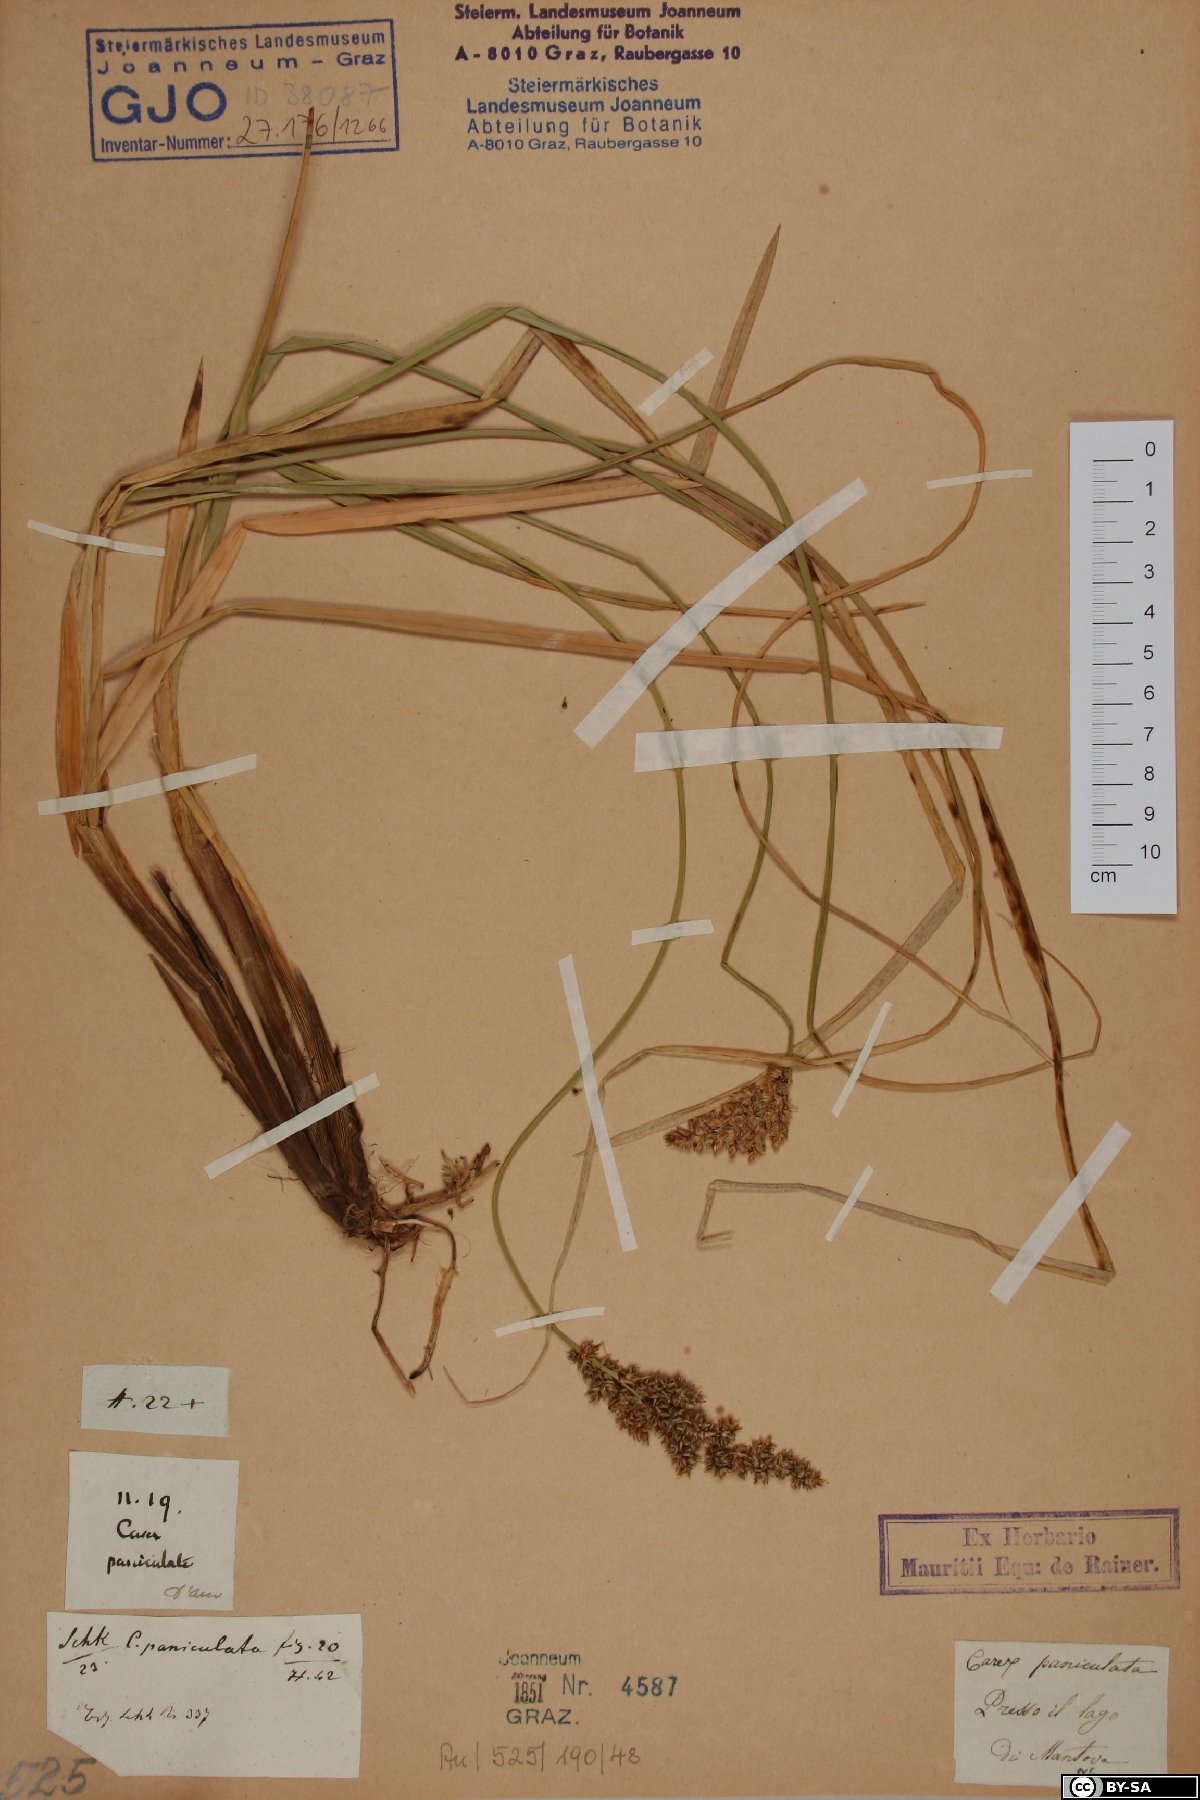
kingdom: Plantae
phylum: Tracheophyta
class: Liliopsida
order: Poales
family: Cyperaceae
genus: Carex
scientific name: Carex paniculata
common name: Greater tussock-sedge
